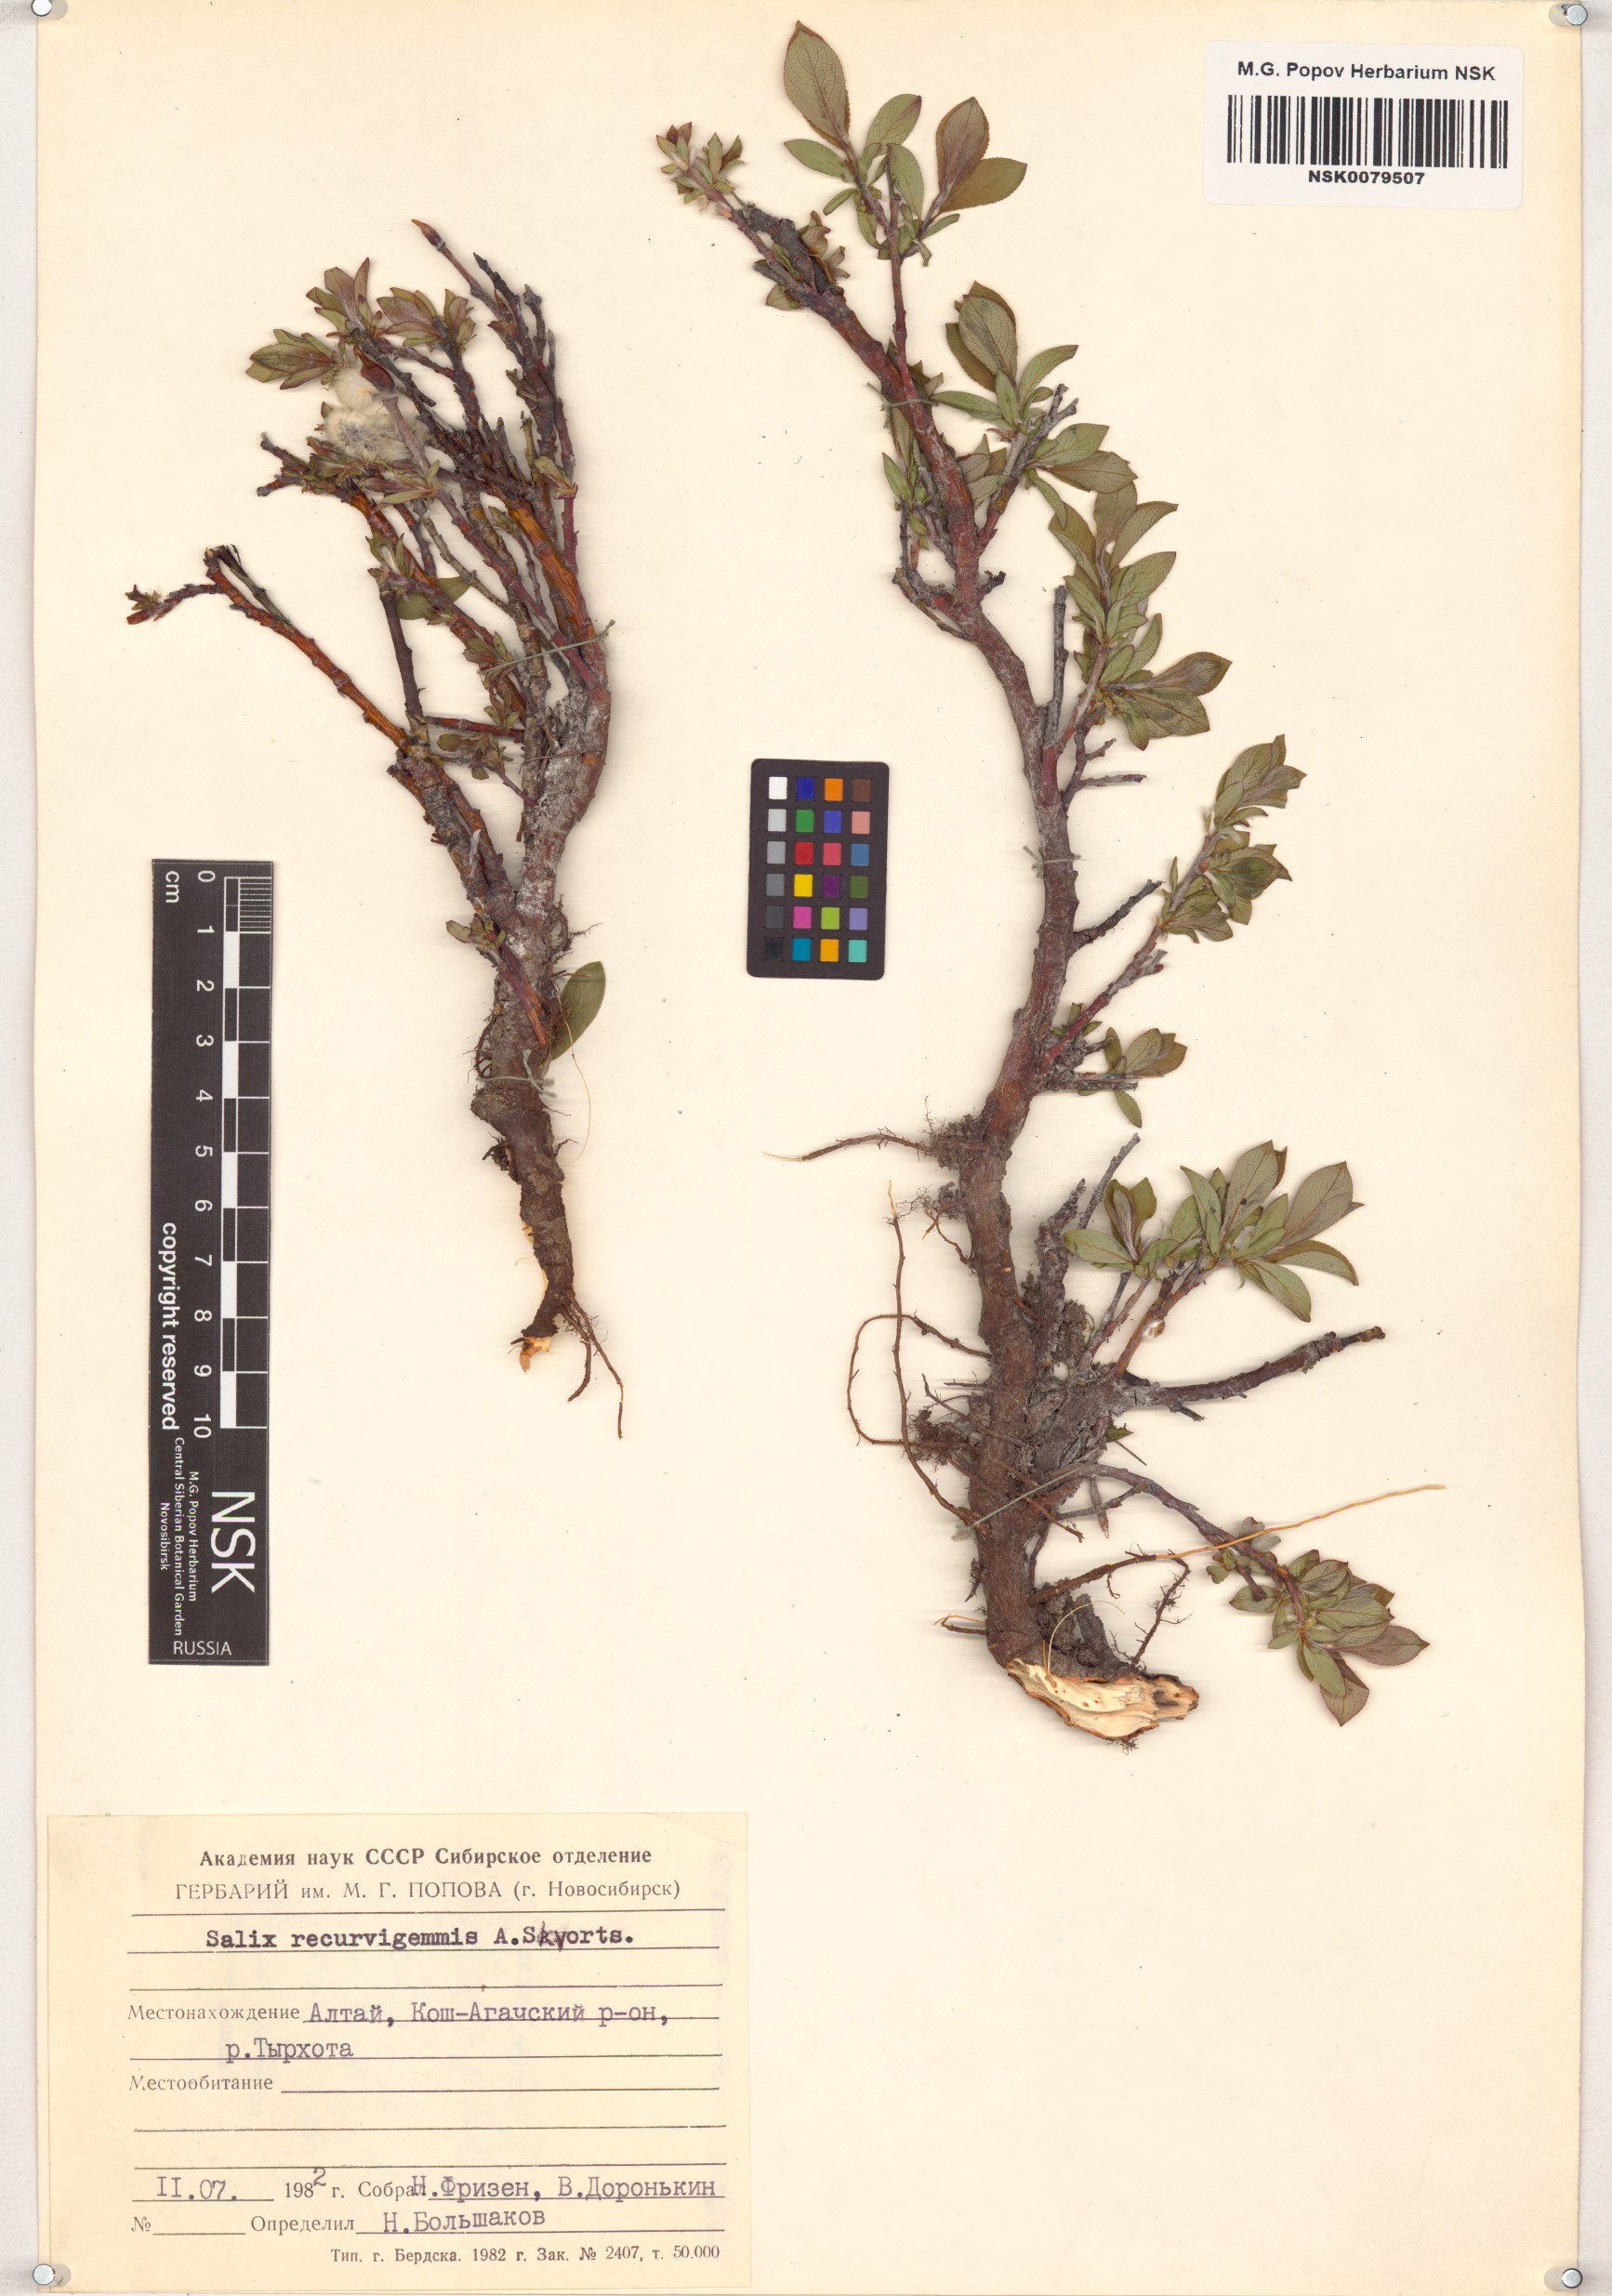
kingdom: Plantae
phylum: Tracheophyta
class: Magnoliopsida
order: Malpighiales
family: Salicaceae
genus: Salix
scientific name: Salix recurvigemmata
